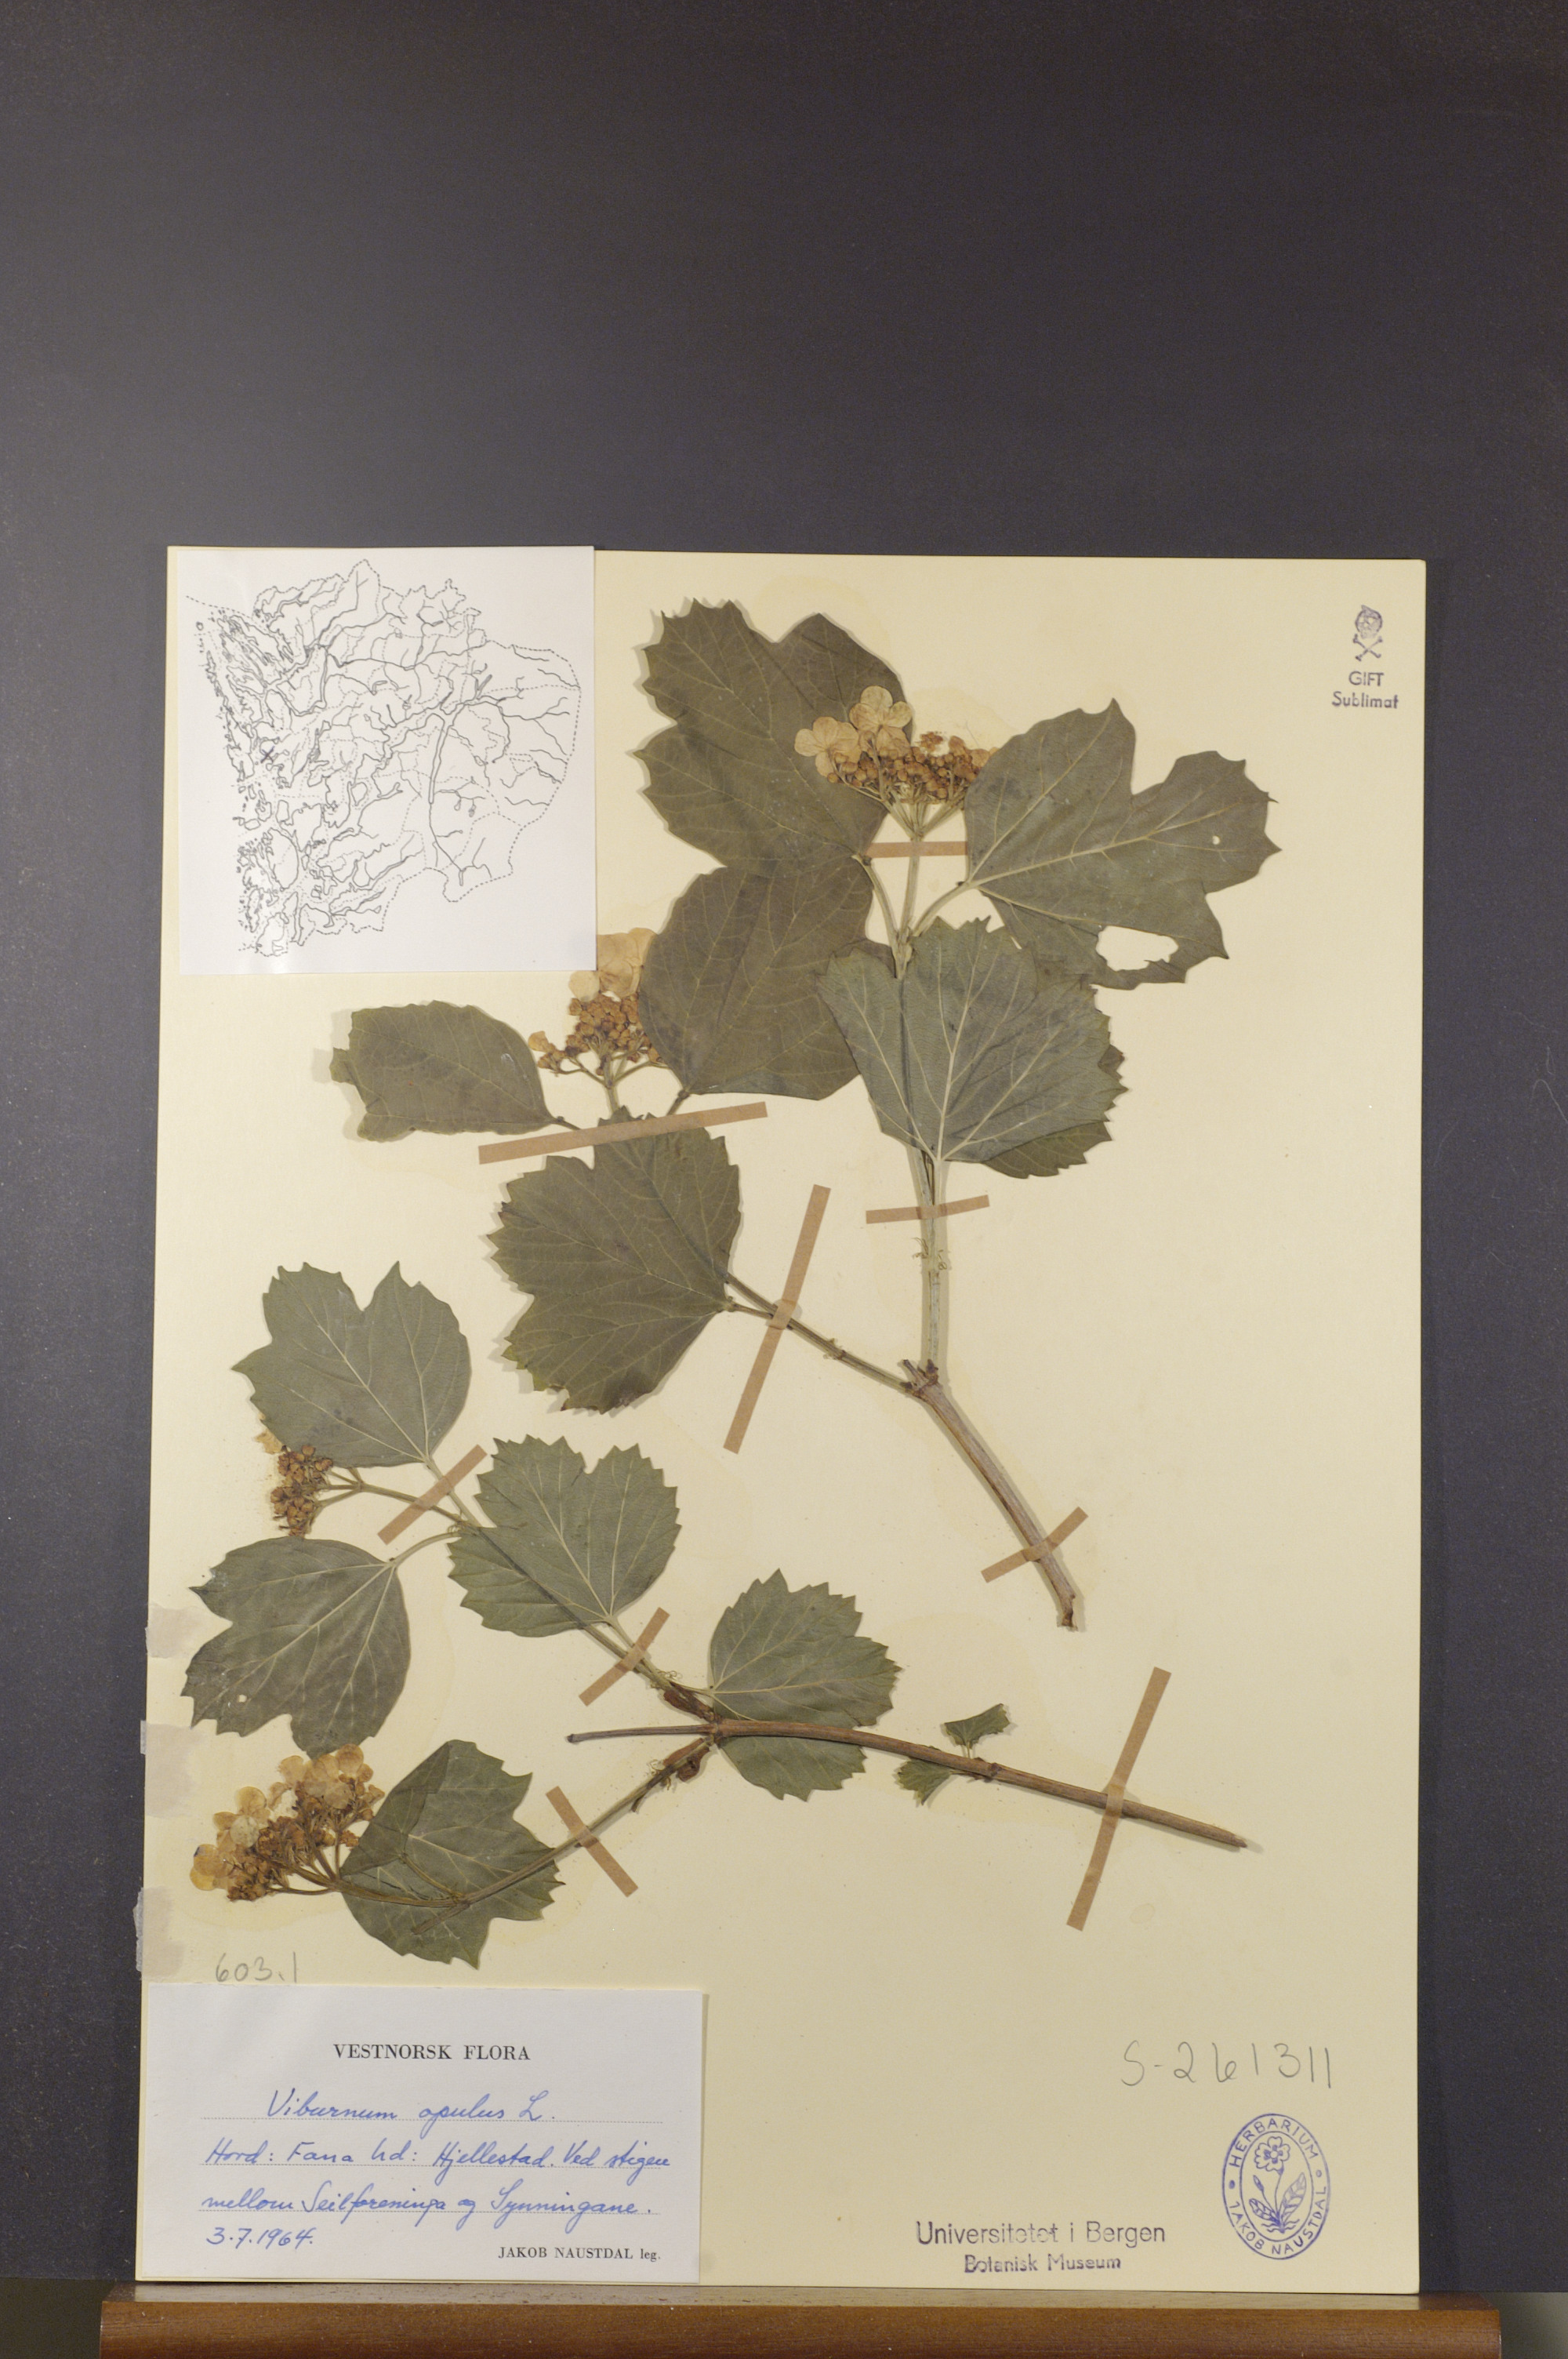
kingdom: Plantae
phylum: Tracheophyta
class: Magnoliopsida
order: Dipsacales
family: Viburnaceae
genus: Viburnum
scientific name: Viburnum opulus
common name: Guelder-rose
